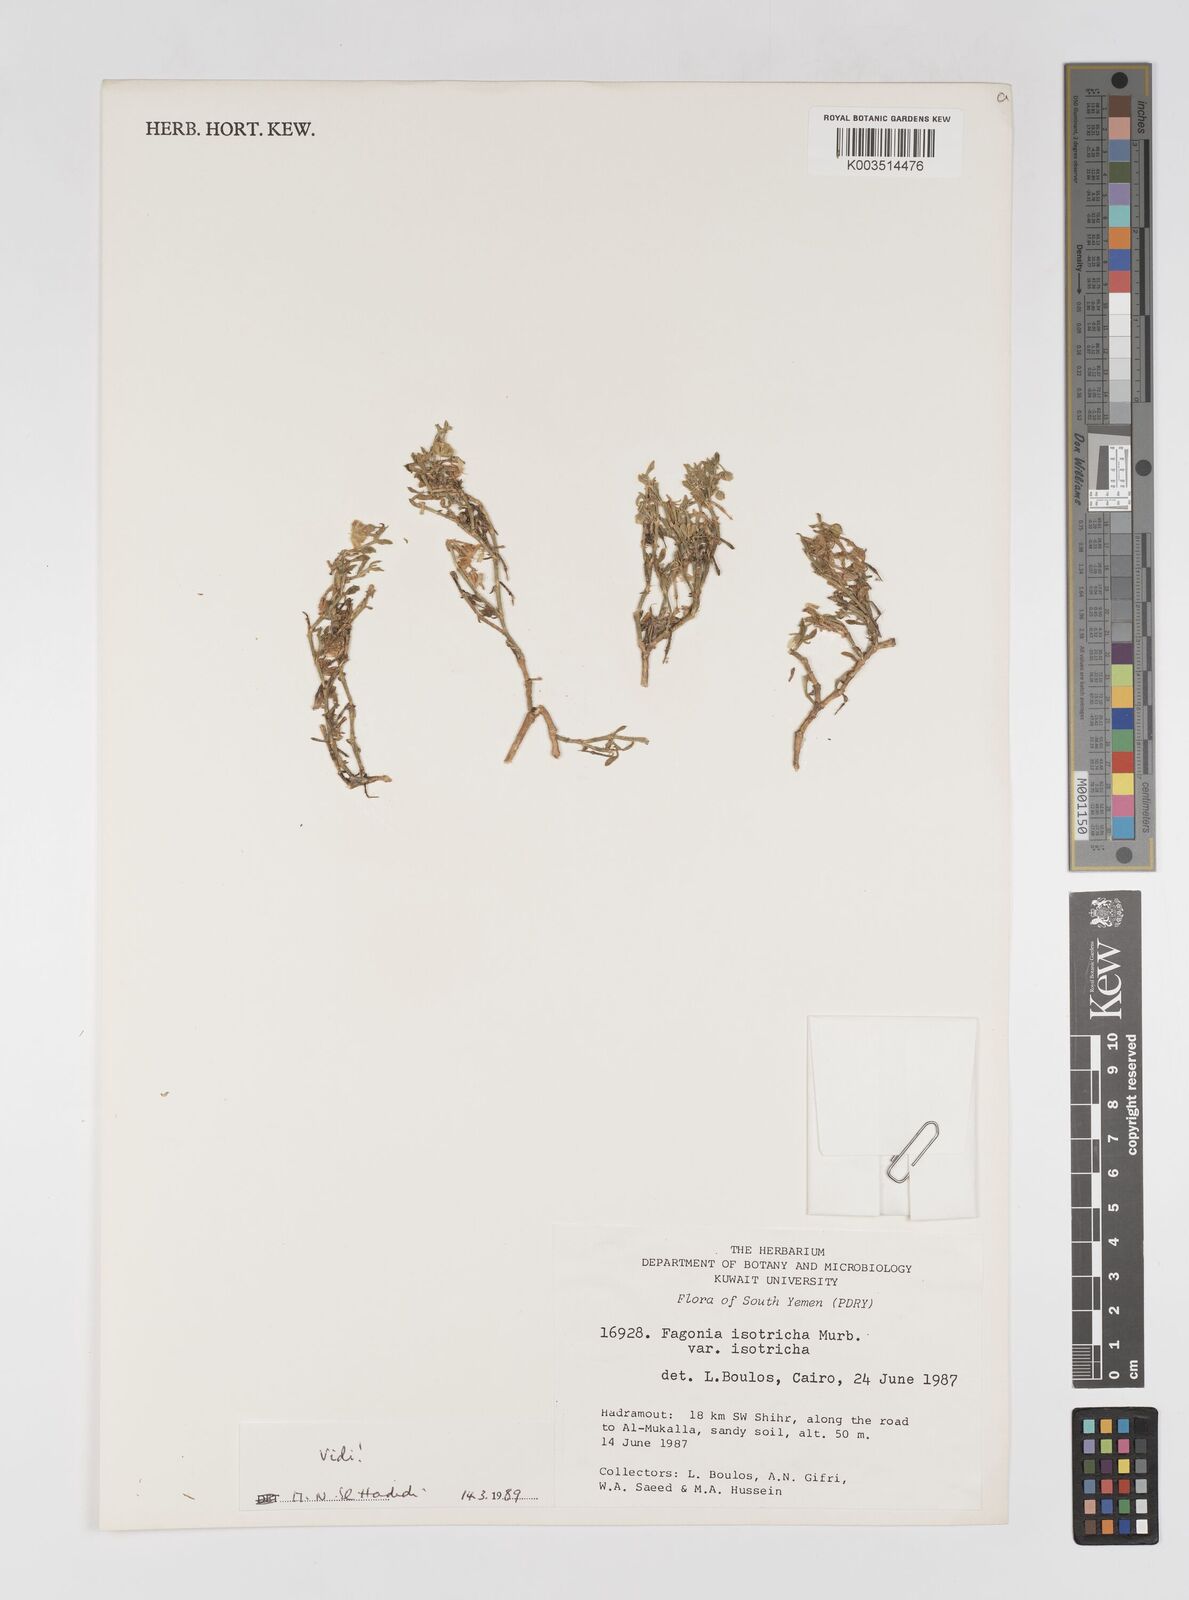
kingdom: Plantae
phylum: Tracheophyta
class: Magnoliopsida
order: Zygophyllales
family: Zygophyllaceae
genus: Fagonia
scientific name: Fagonia latifolia
